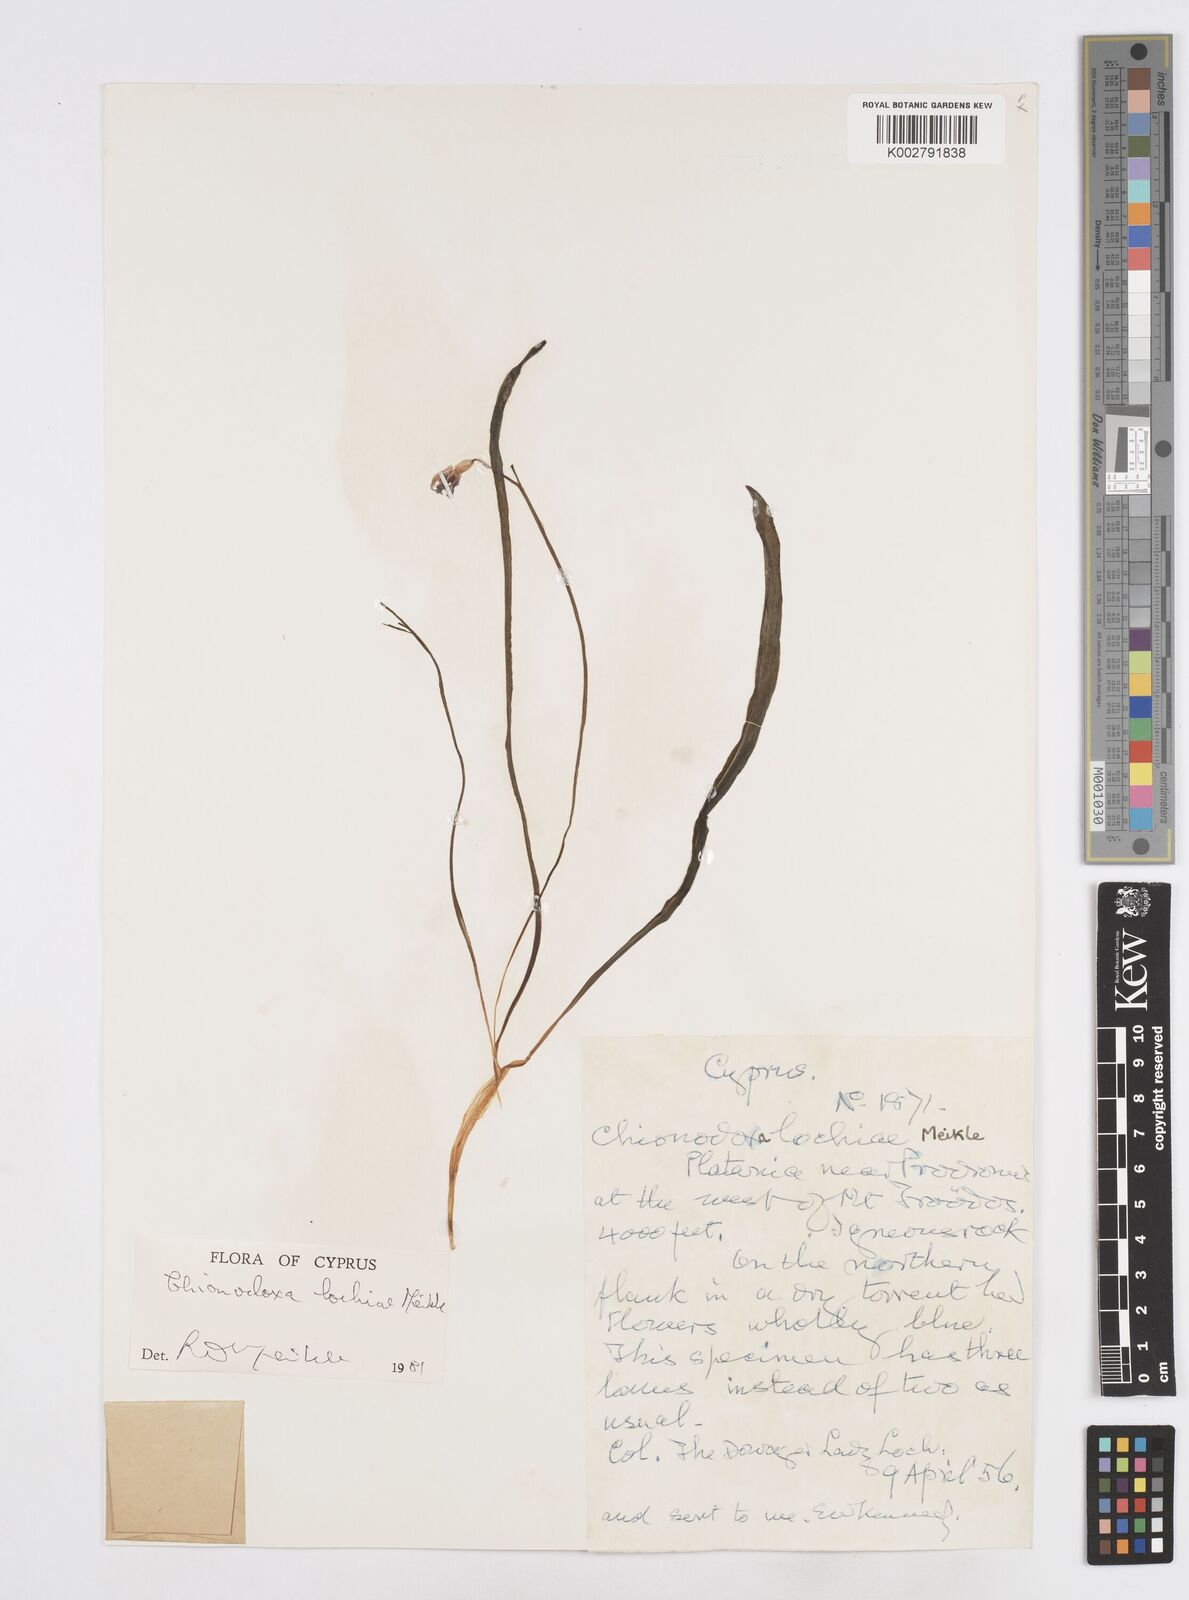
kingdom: Plantae
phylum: Tracheophyta
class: Liliopsida
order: Asparagales
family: Asparagaceae
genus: Scilla
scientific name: Scilla lochiae
